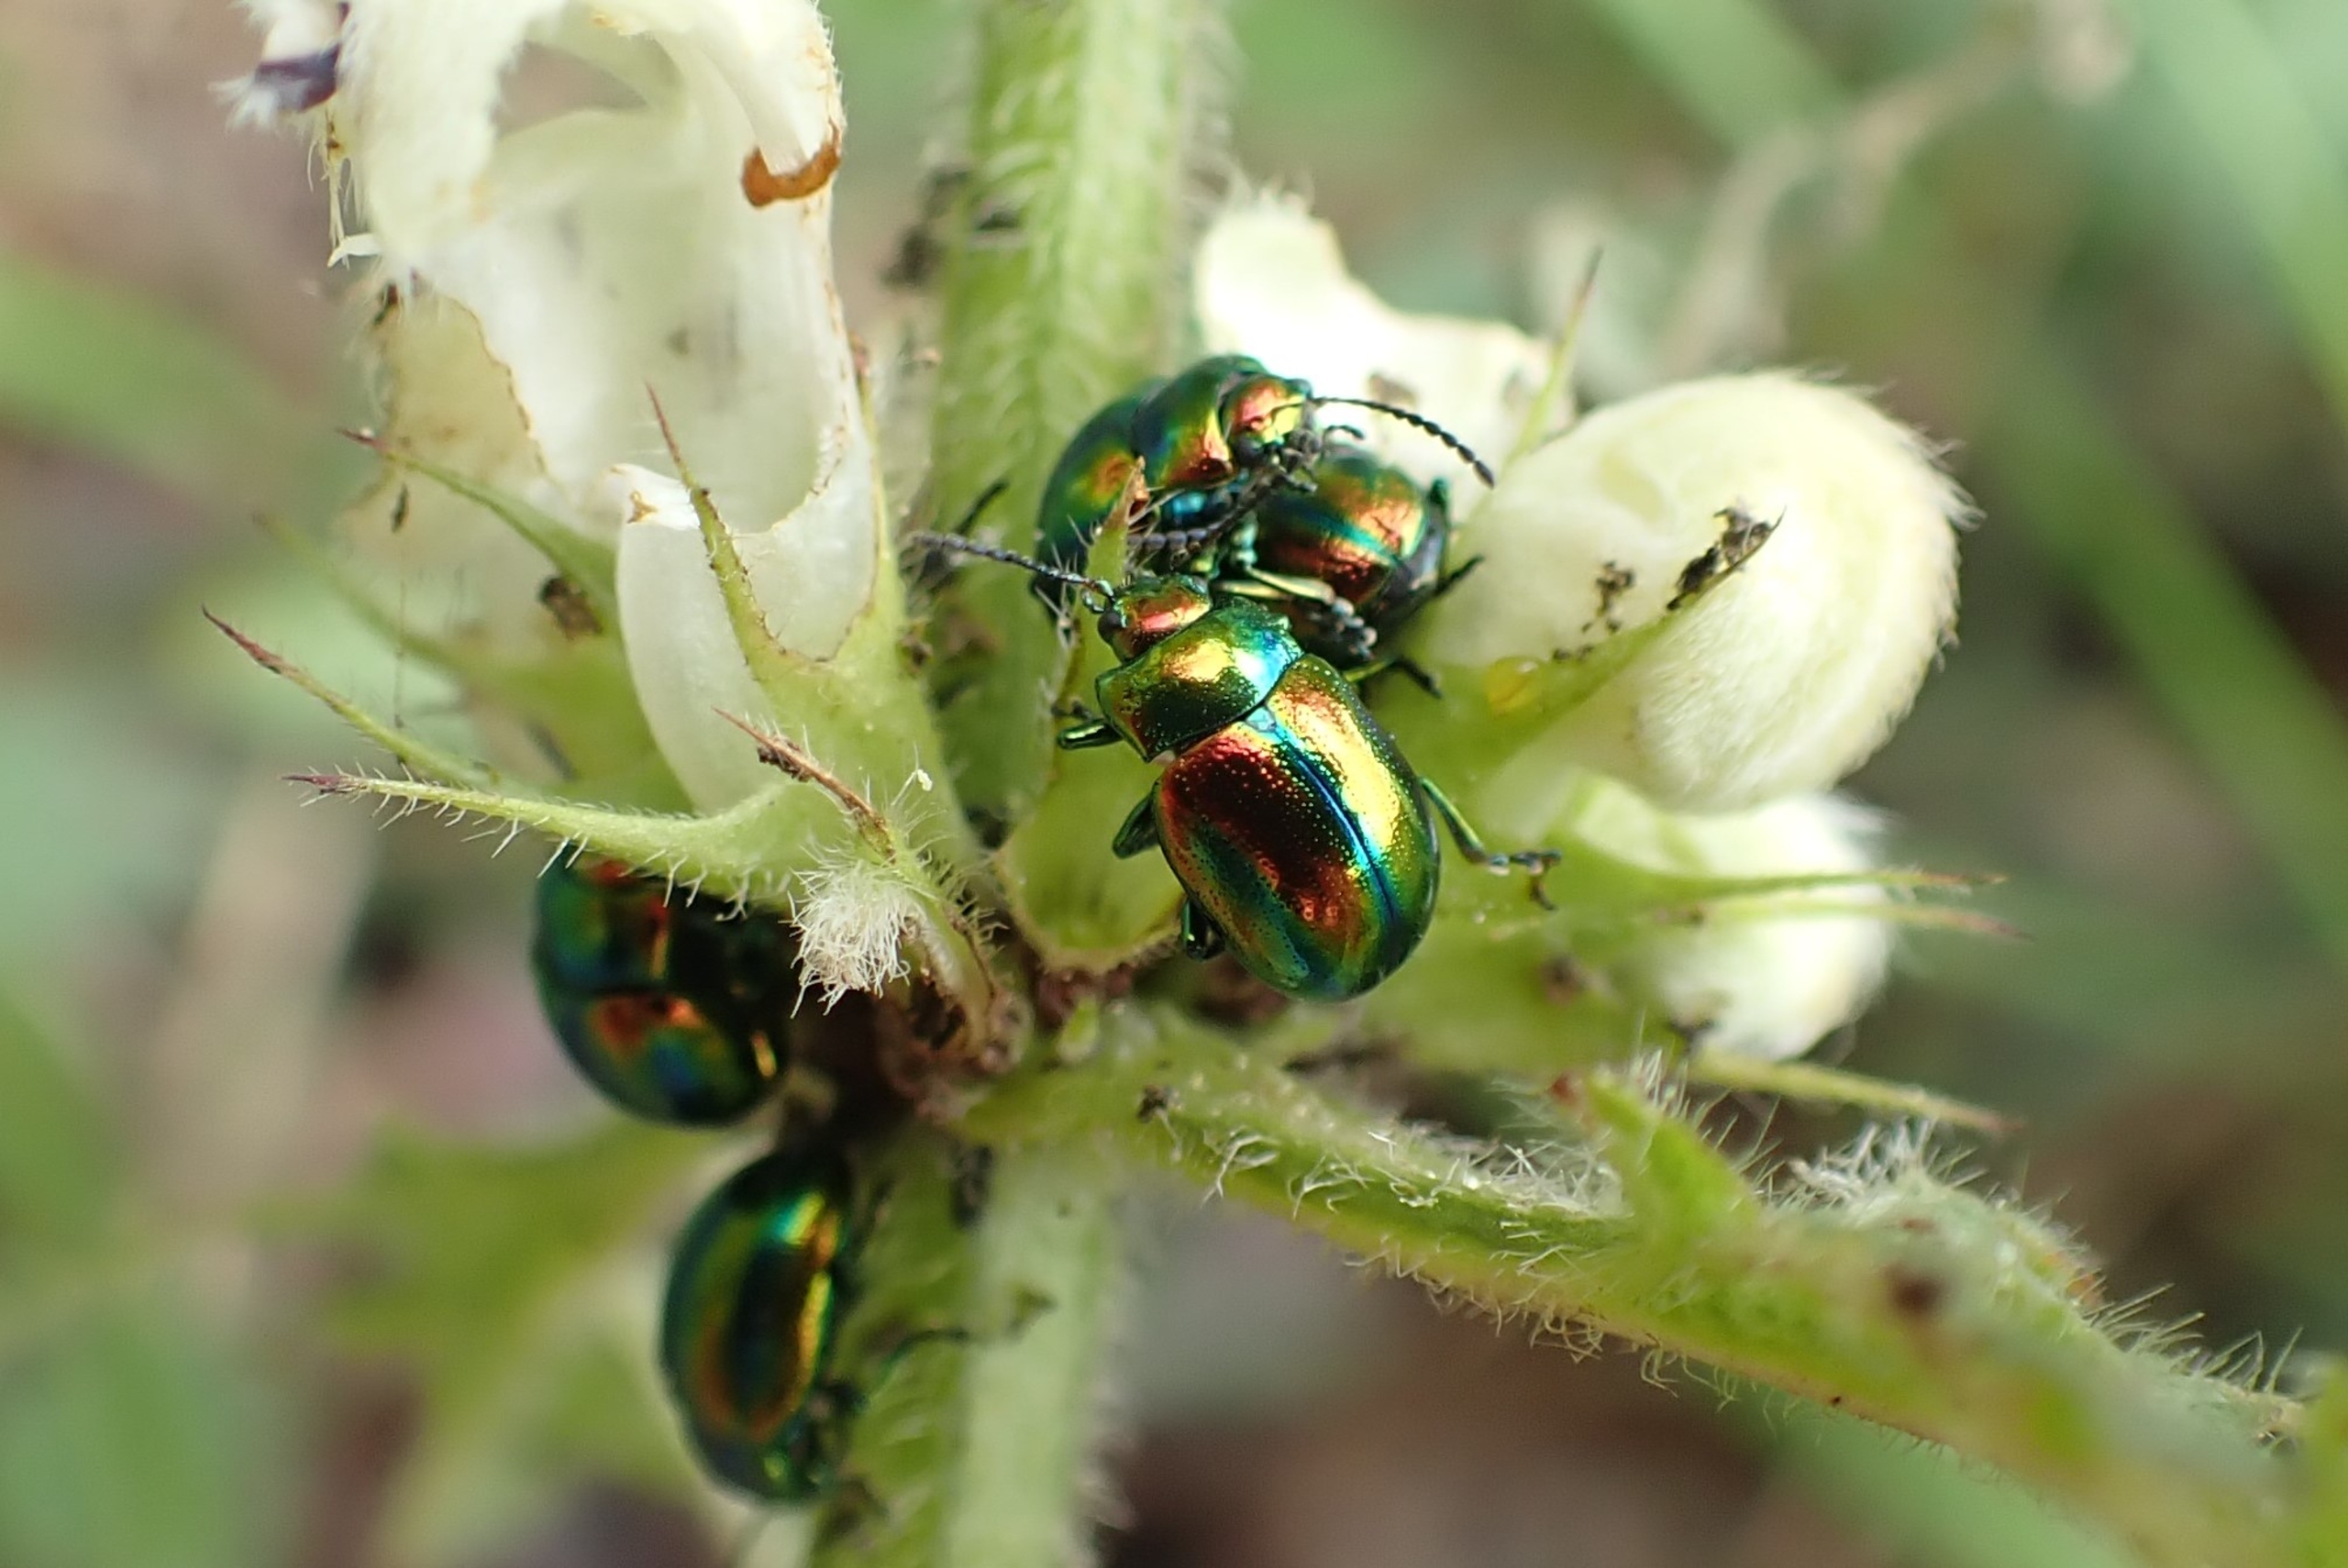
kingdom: Animalia
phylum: Arthropoda
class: Insecta
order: Coleoptera
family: Chrysomelidae
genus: Chrysolina
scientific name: Chrysolina fastuosa
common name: Tvetandbladbille
